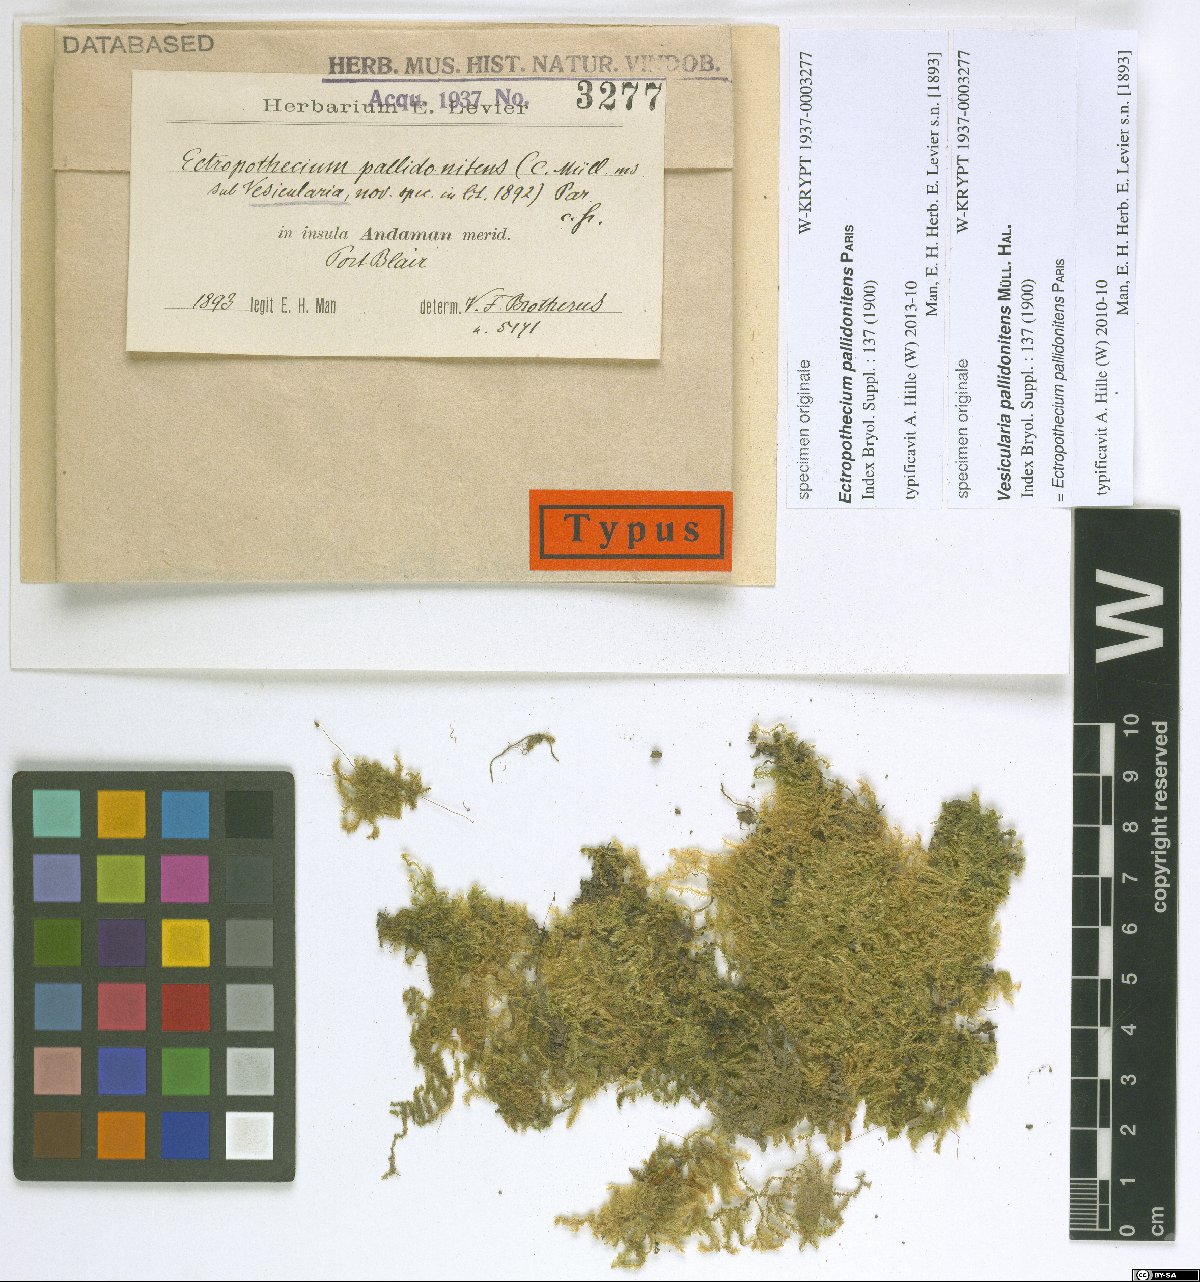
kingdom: Plantae
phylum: Bryophyta
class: Bryopsida
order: Hypnales
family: Hypnaceae
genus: Ectropothecium
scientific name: Ectropothecium pallido-nitens
